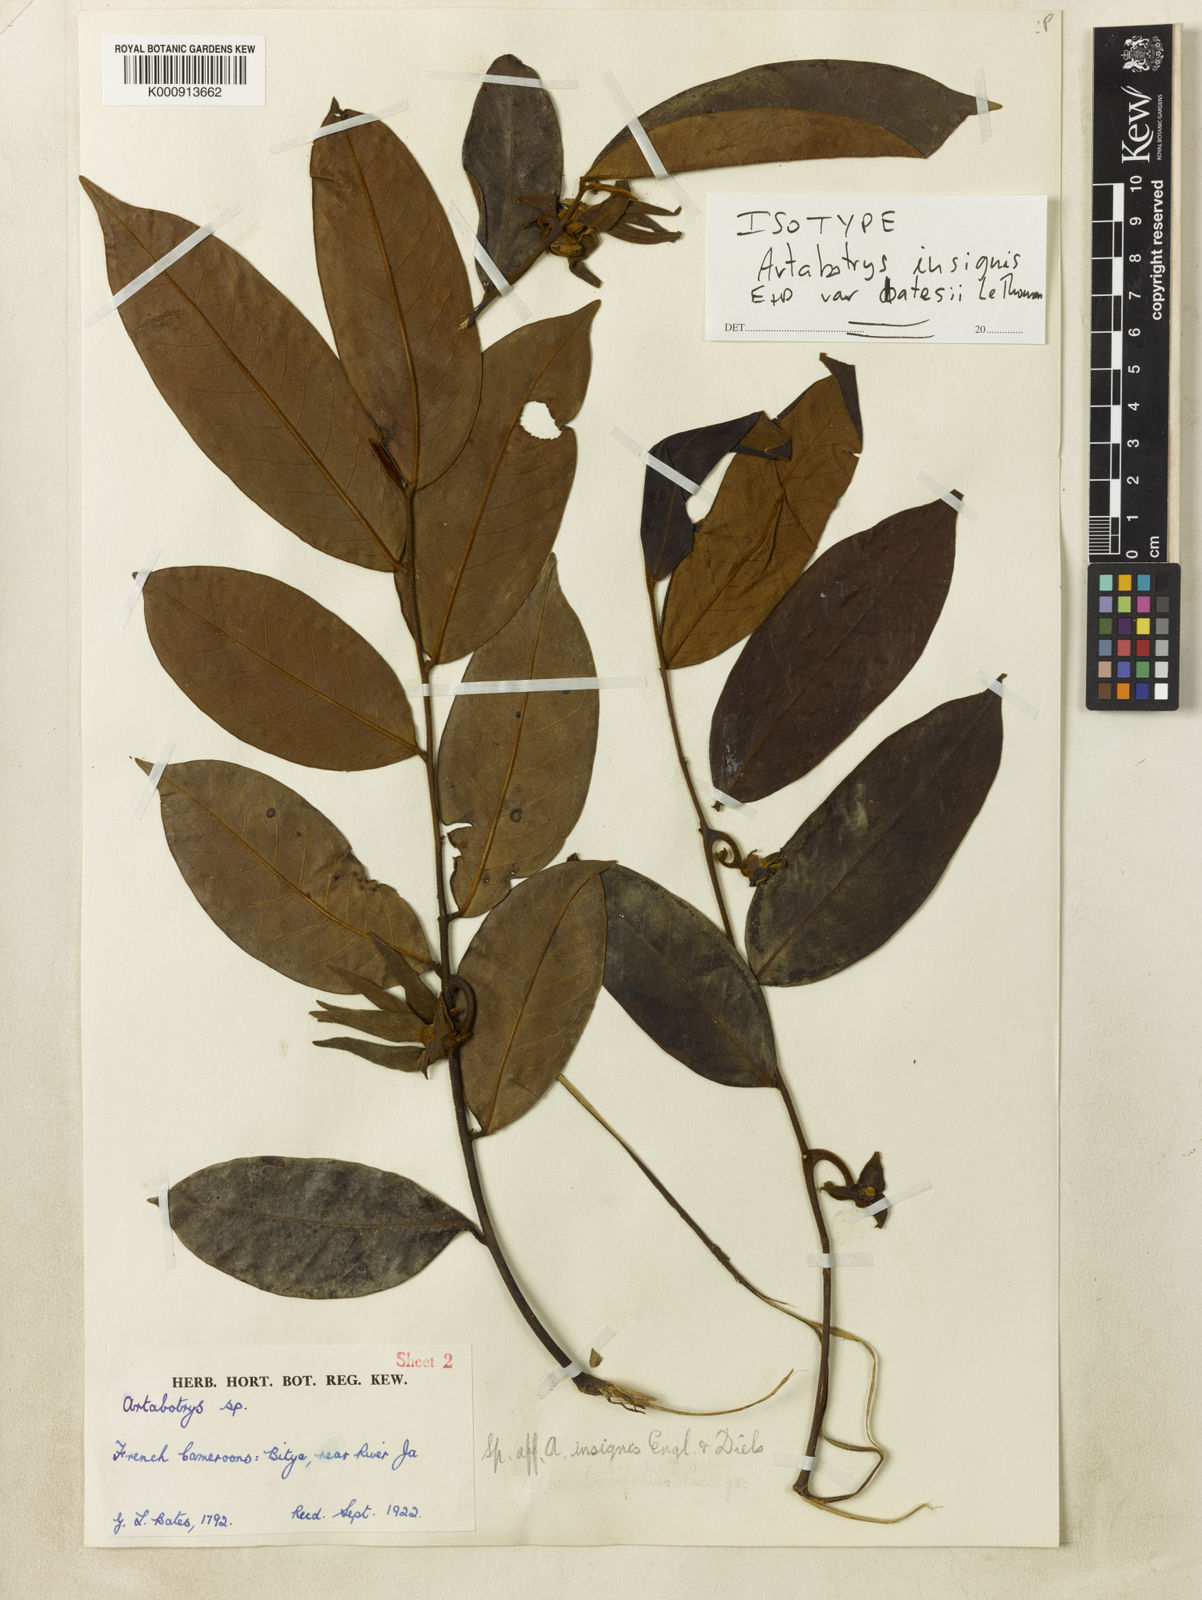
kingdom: Plantae
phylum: Tracheophyta
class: Magnoliopsida
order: Magnoliales
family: Annonaceae
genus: Artabotrys
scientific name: Artabotrys insignis
